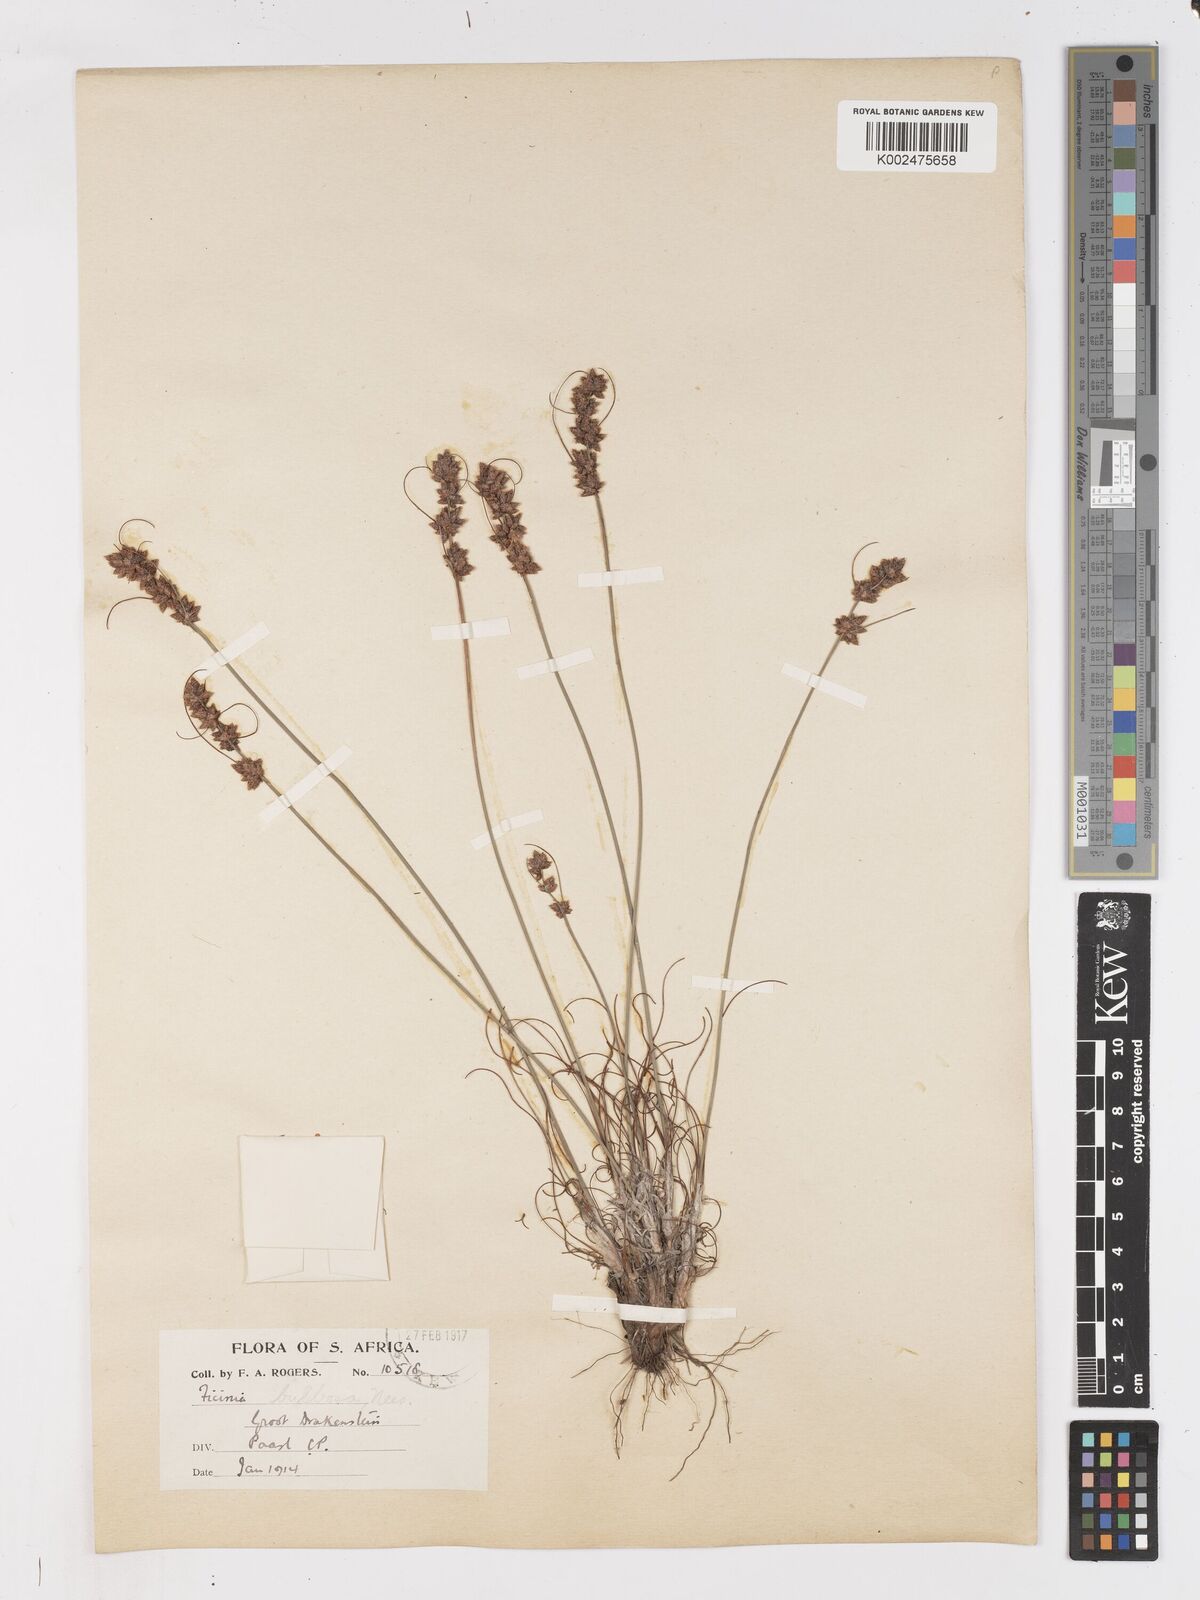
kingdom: Plantae
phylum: Tracheophyta
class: Liliopsida
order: Poales
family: Cyperaceae
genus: Ficinia
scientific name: Ficinia bulbosa
